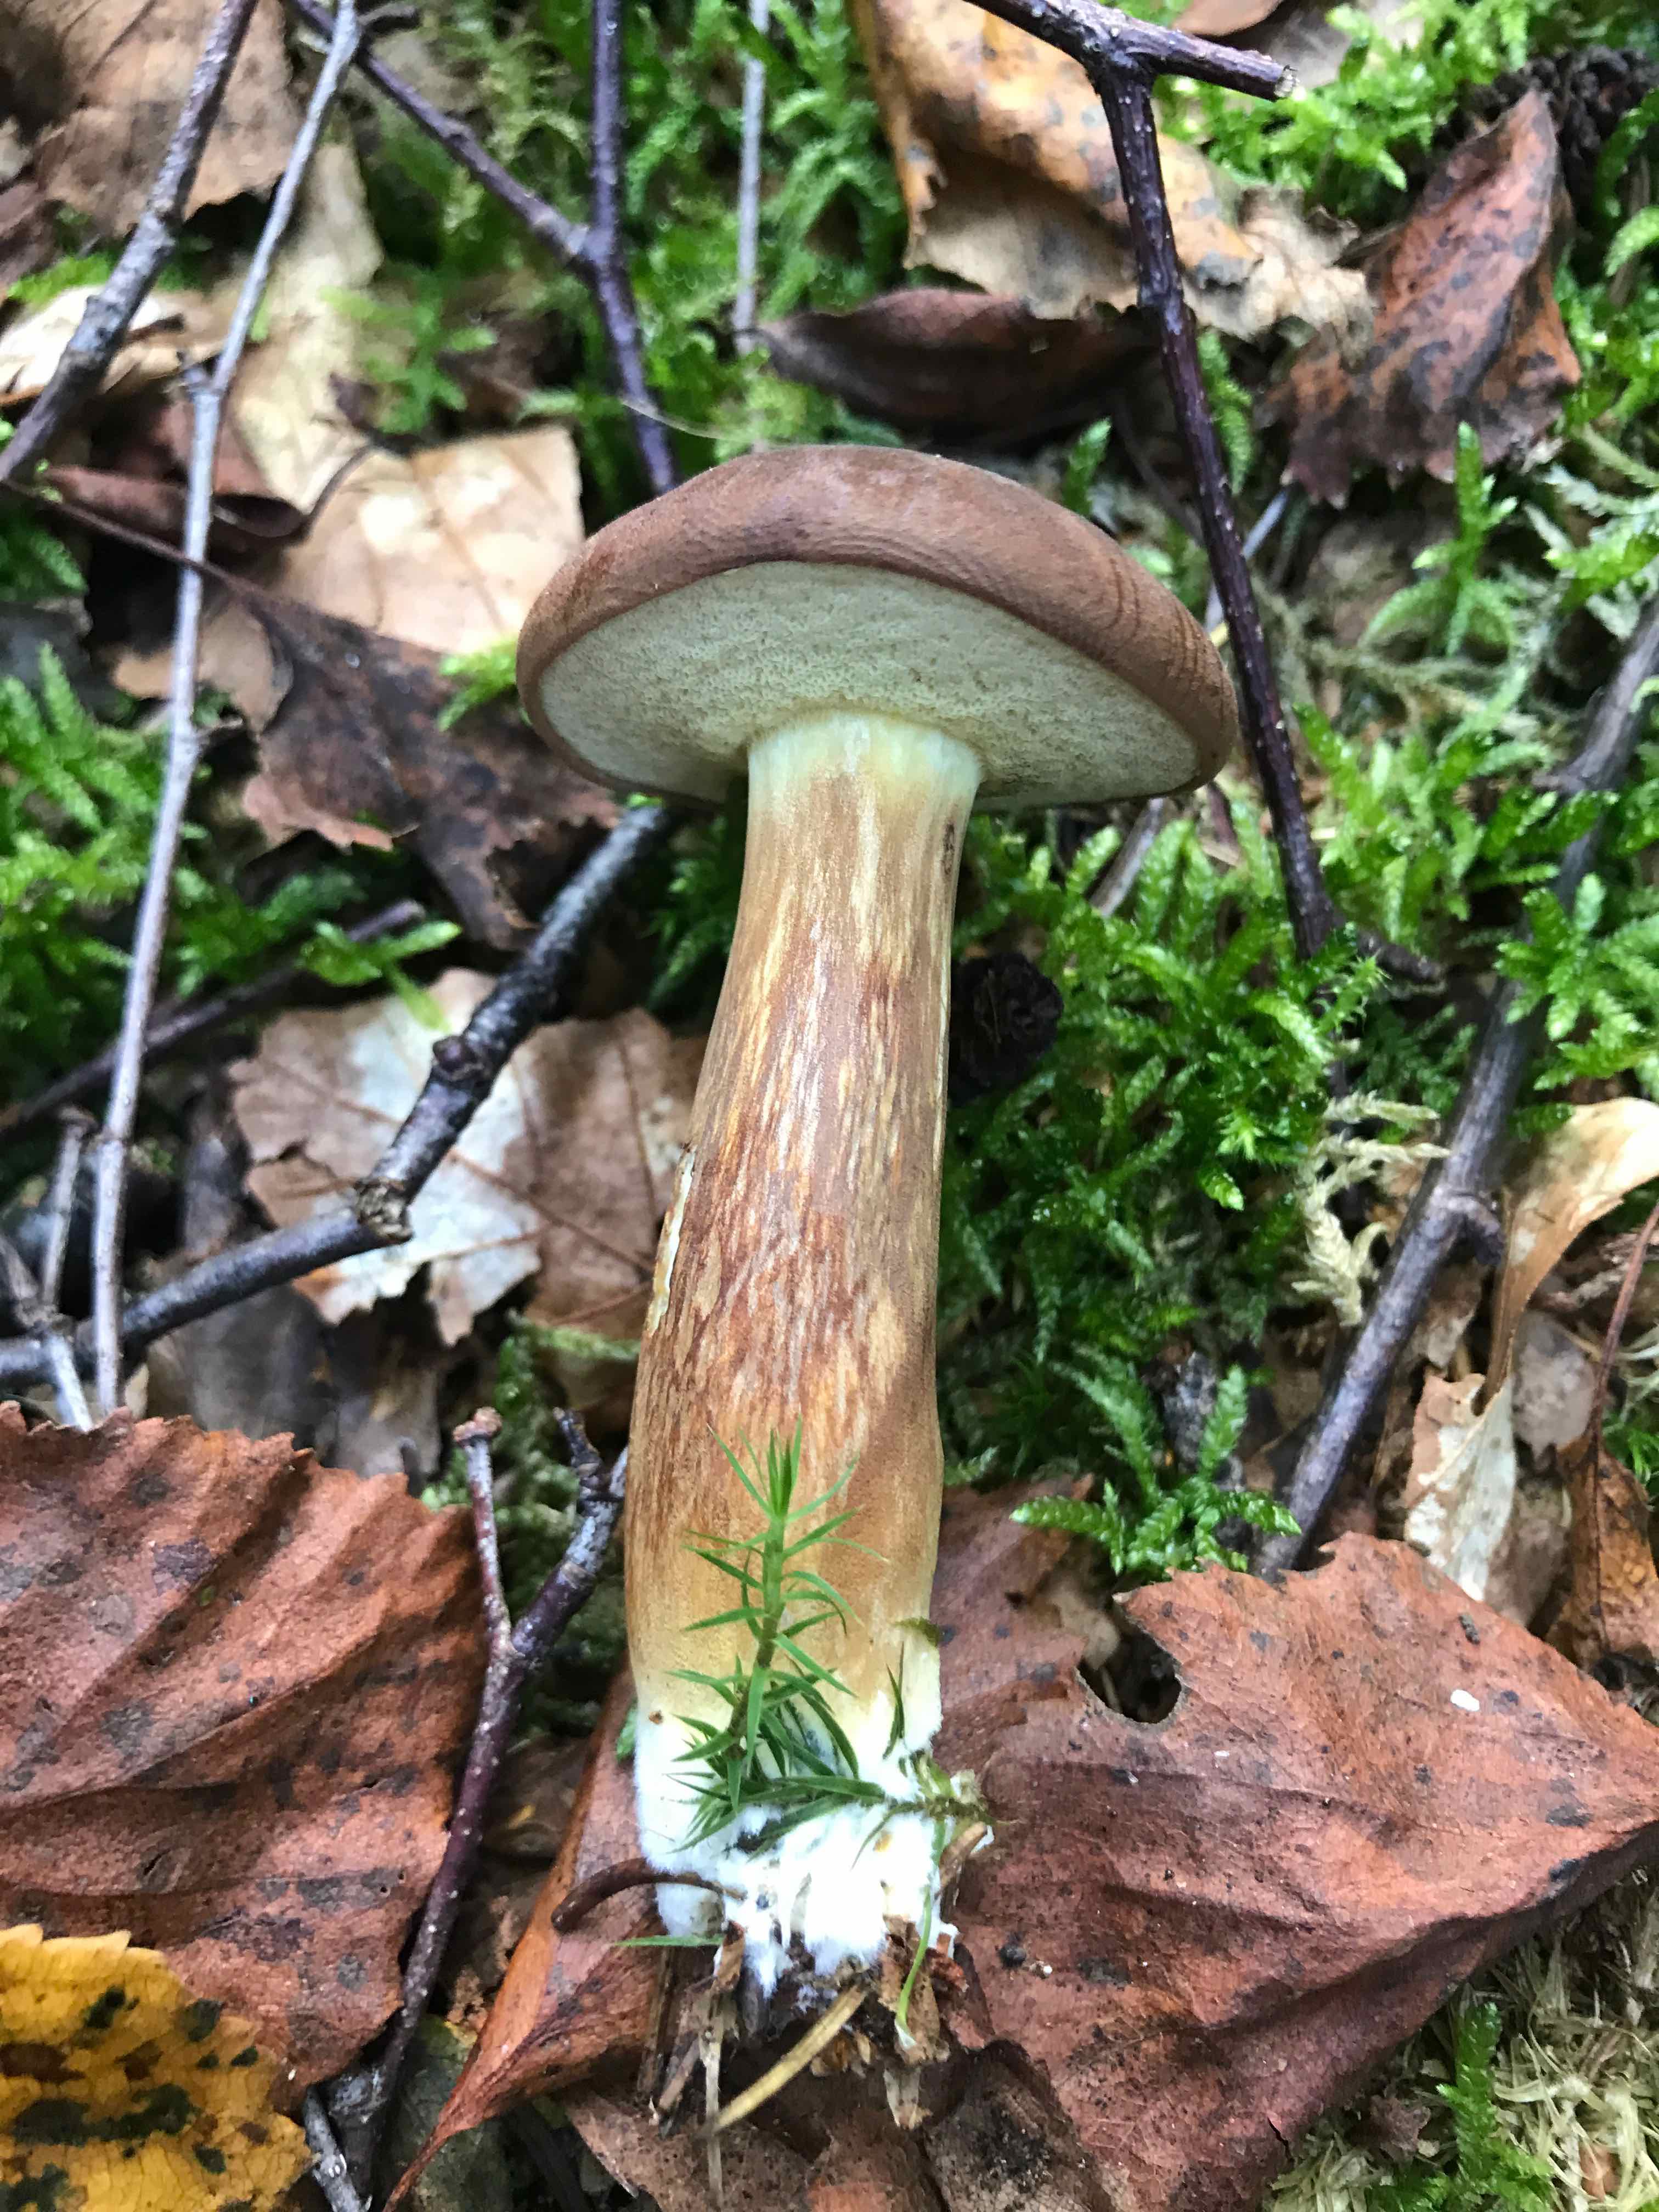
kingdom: Fungi
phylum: Basidiomycota
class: Agaricomycetes
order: Boletales
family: Boletaceae
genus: Imleria
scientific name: Imleria badia
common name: brunstokket rørhat
